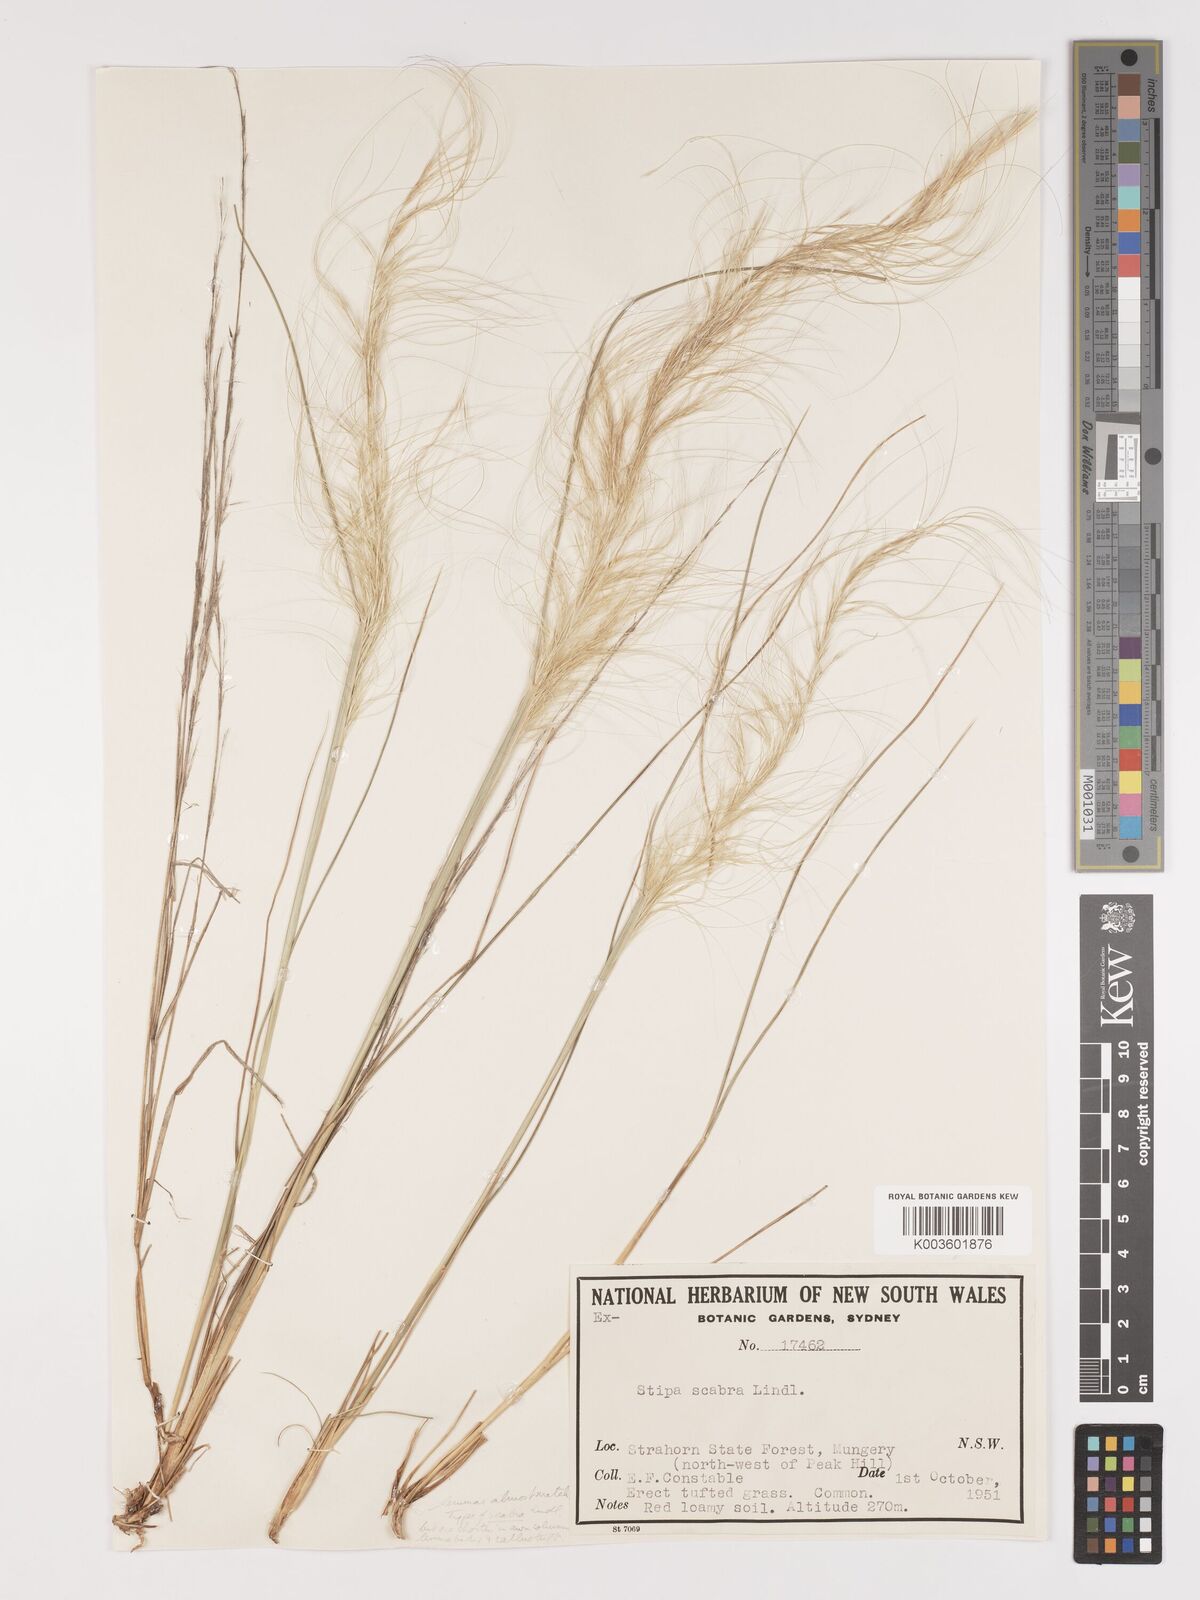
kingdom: Plantae
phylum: Tracheophyta
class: Liliopsida
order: Poales
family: Poaceae
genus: Austrostipa
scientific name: Austrostipa nitida
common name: Balcarra grass
